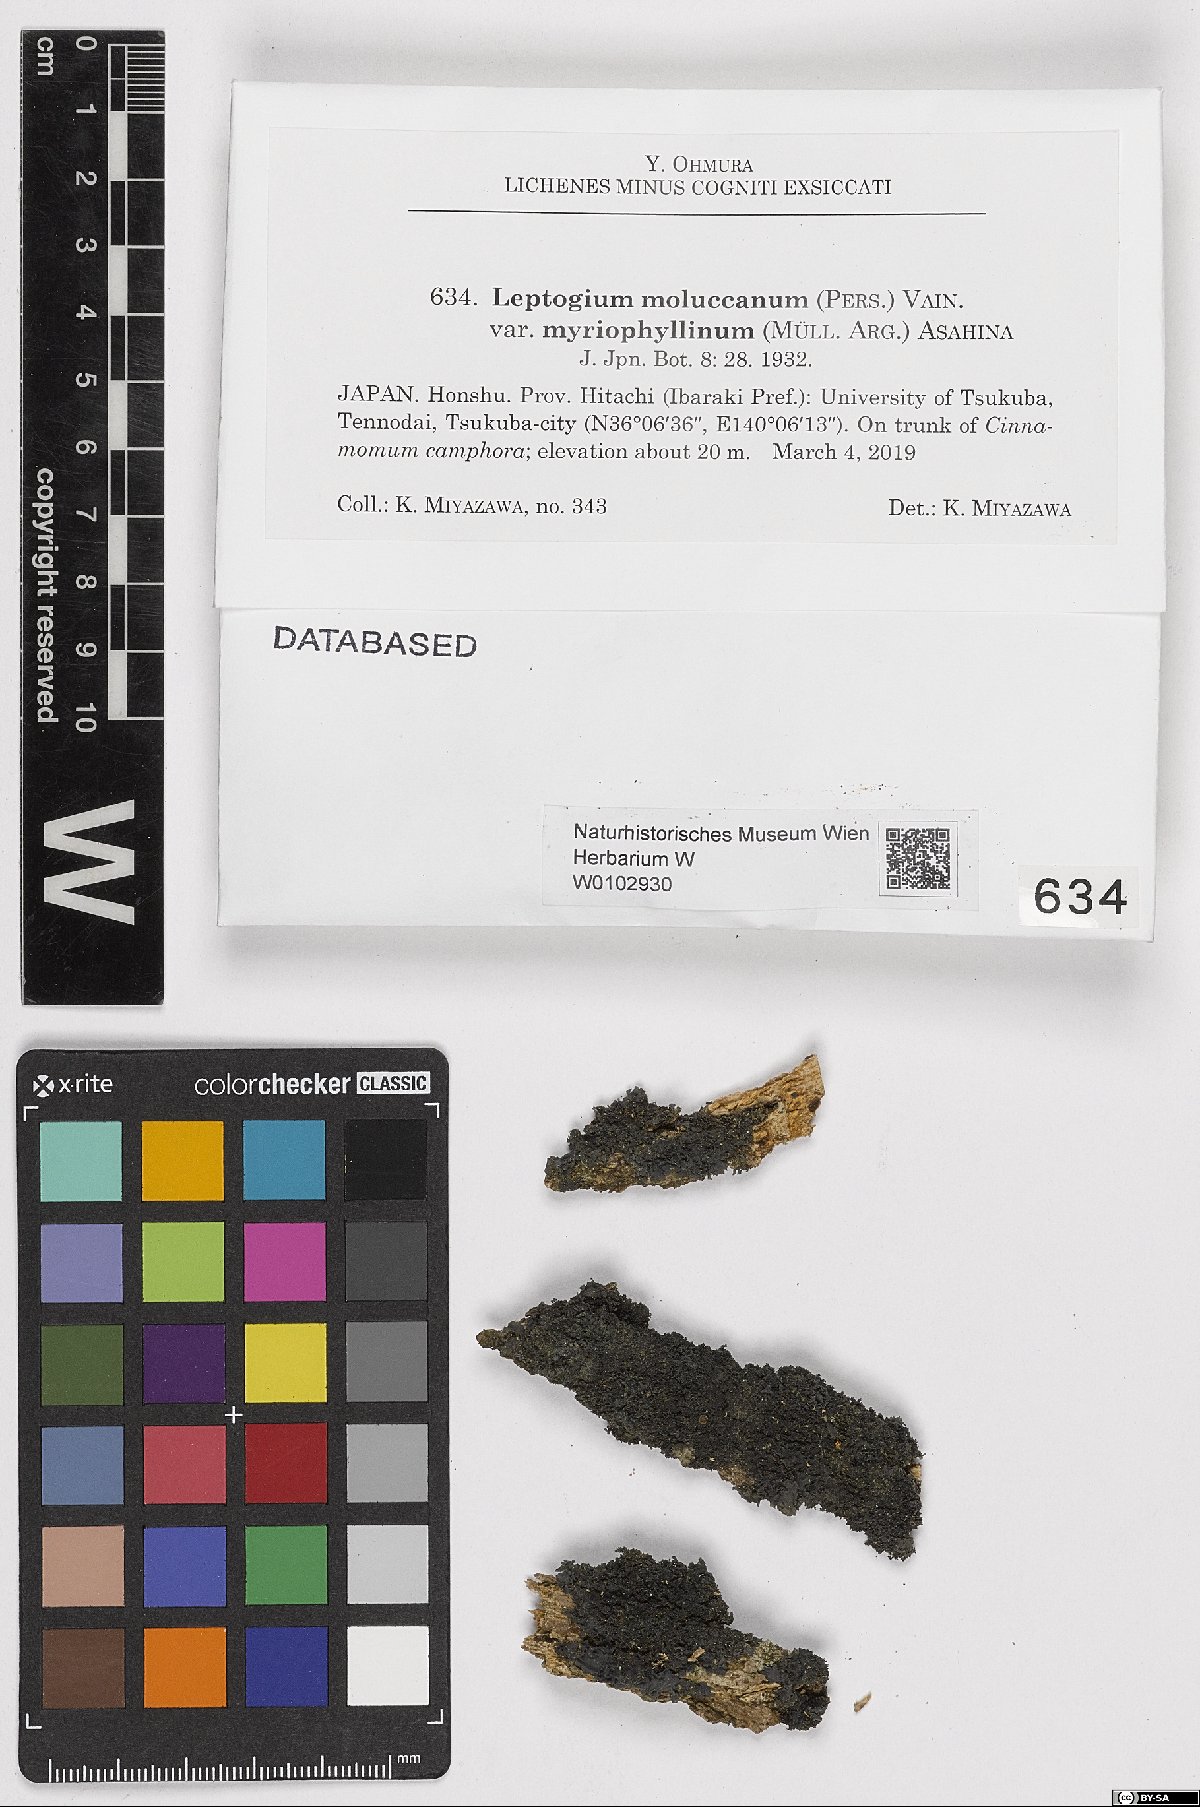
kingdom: Fungi
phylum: Ascomycota
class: Lecanoromycetes
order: Peltigerales
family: Collemataceae
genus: Leptogium
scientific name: Leptogium cochleatum
